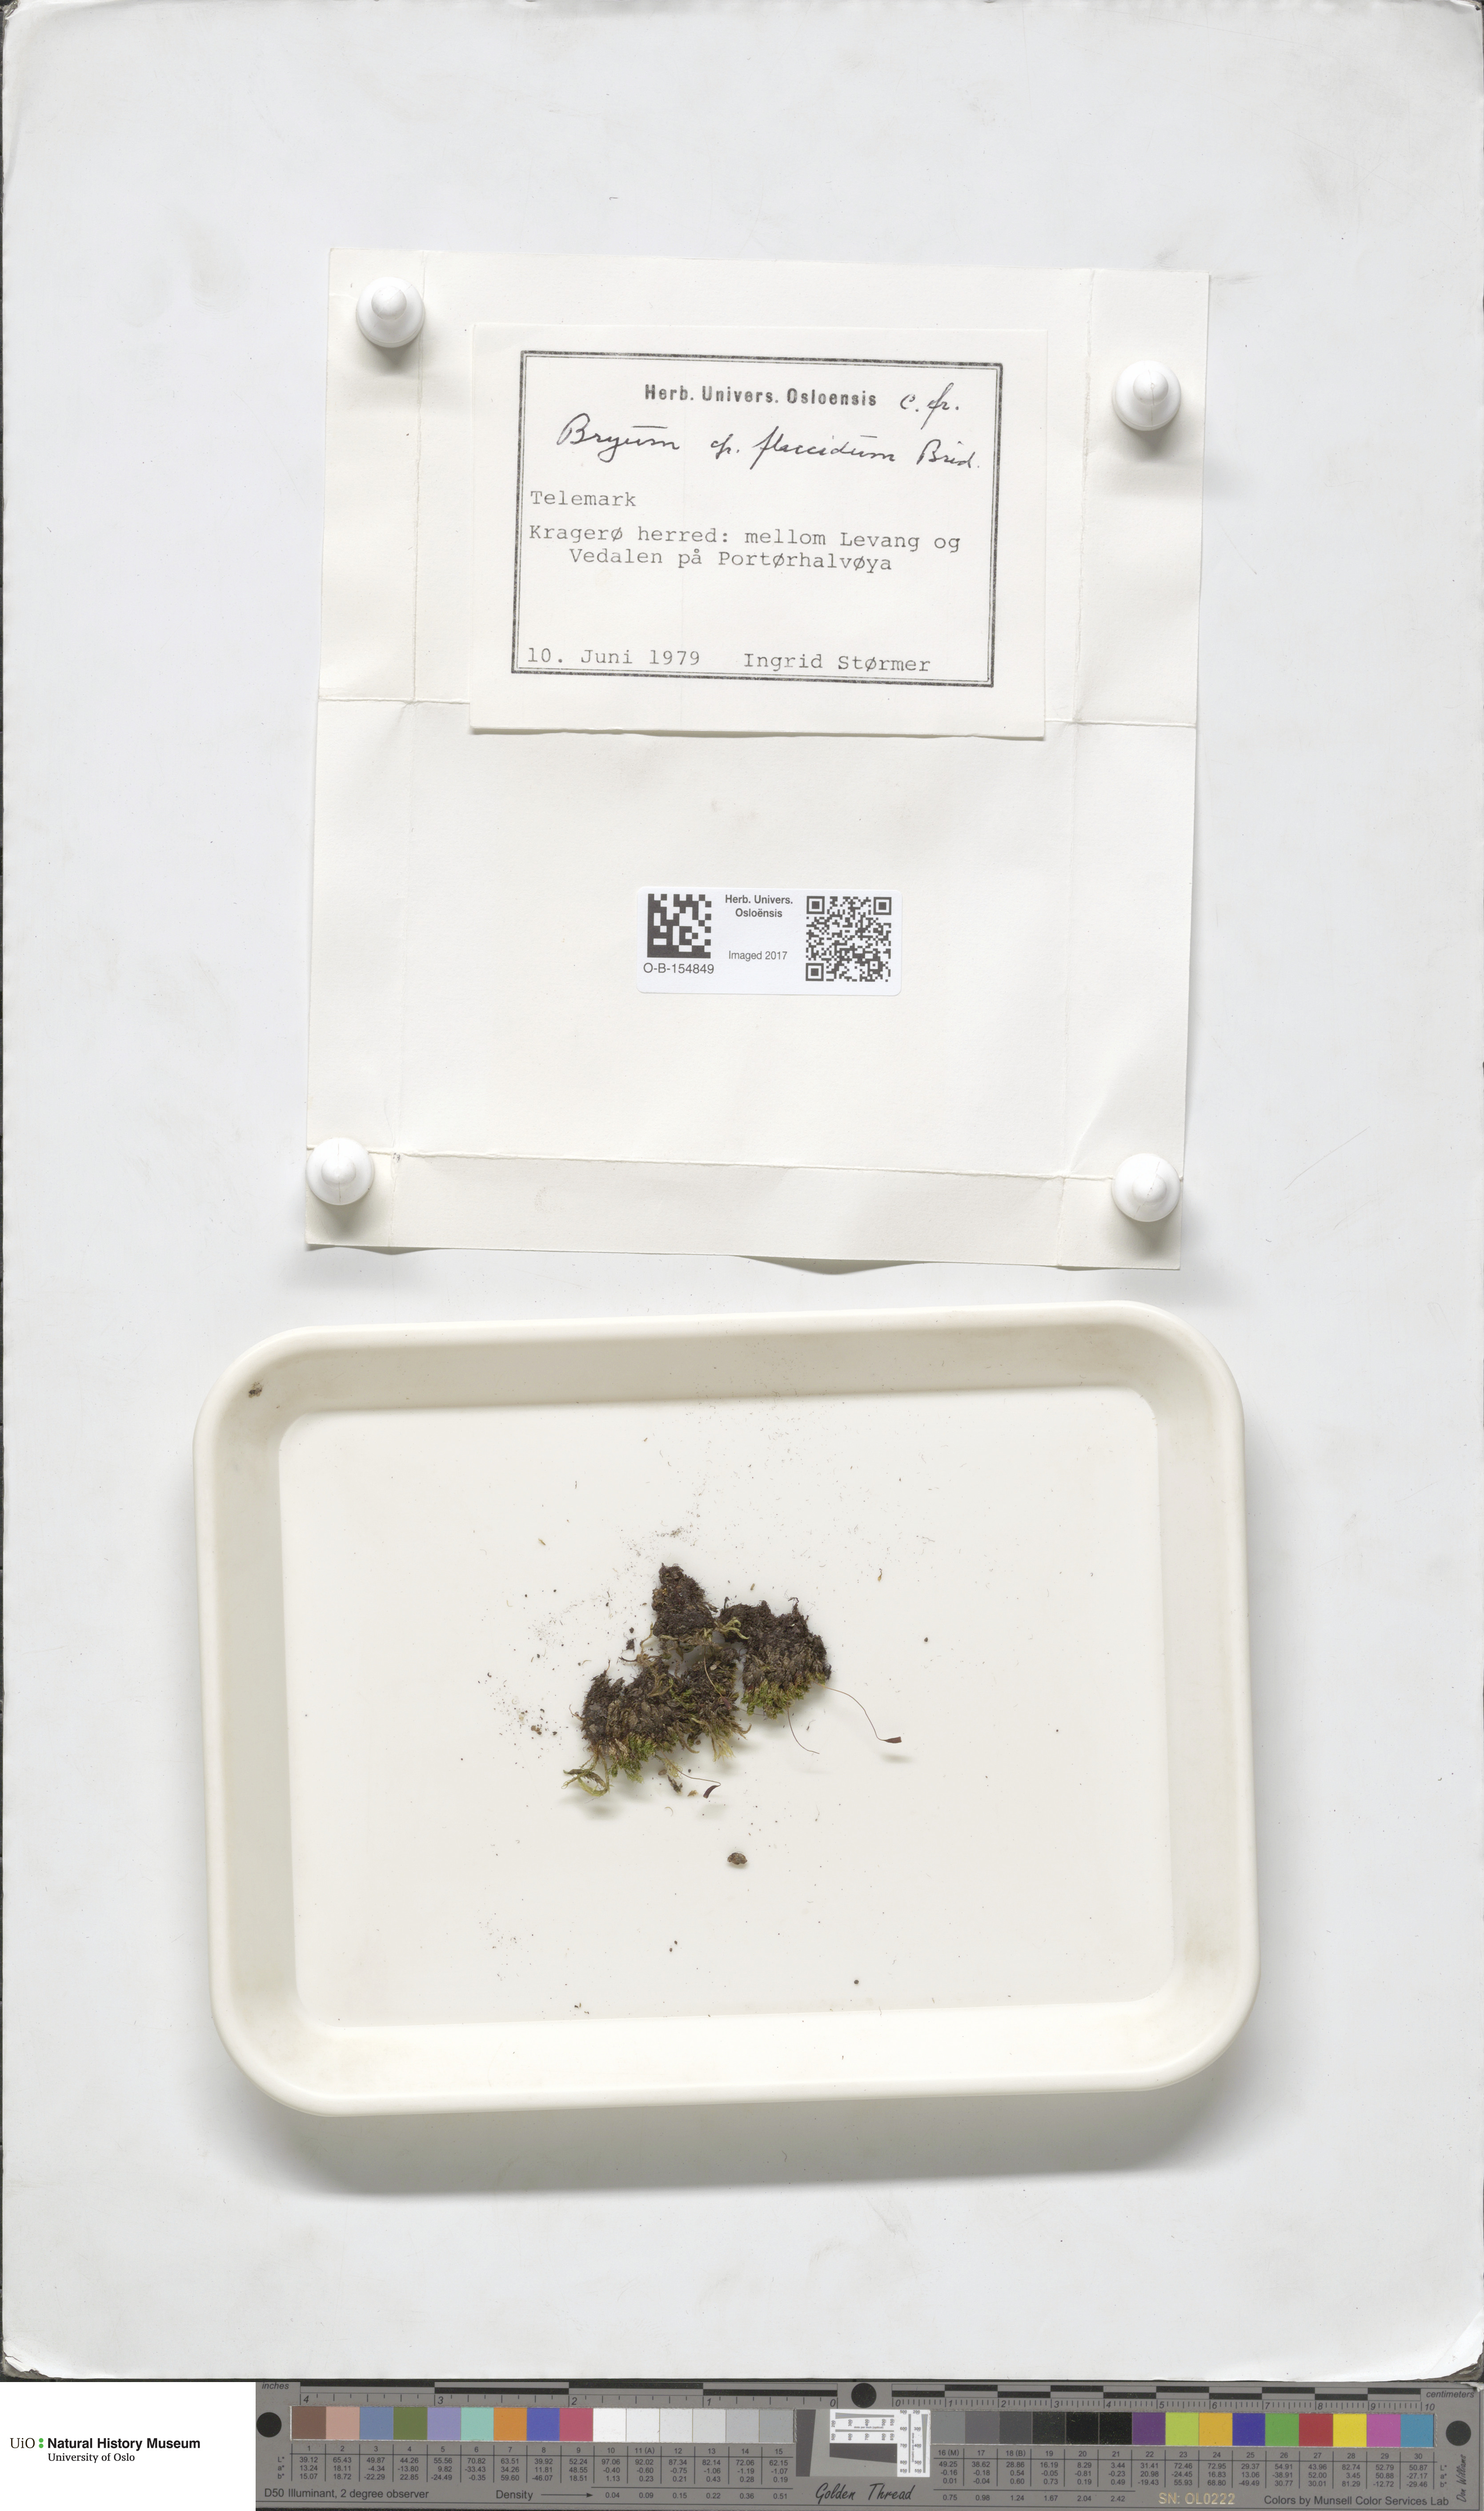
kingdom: Plantae
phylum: Bryophyta
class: Bryopsida
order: Bryales
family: Bryaceae
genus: Rosulabryum
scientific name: Rosulabryum moravicum
